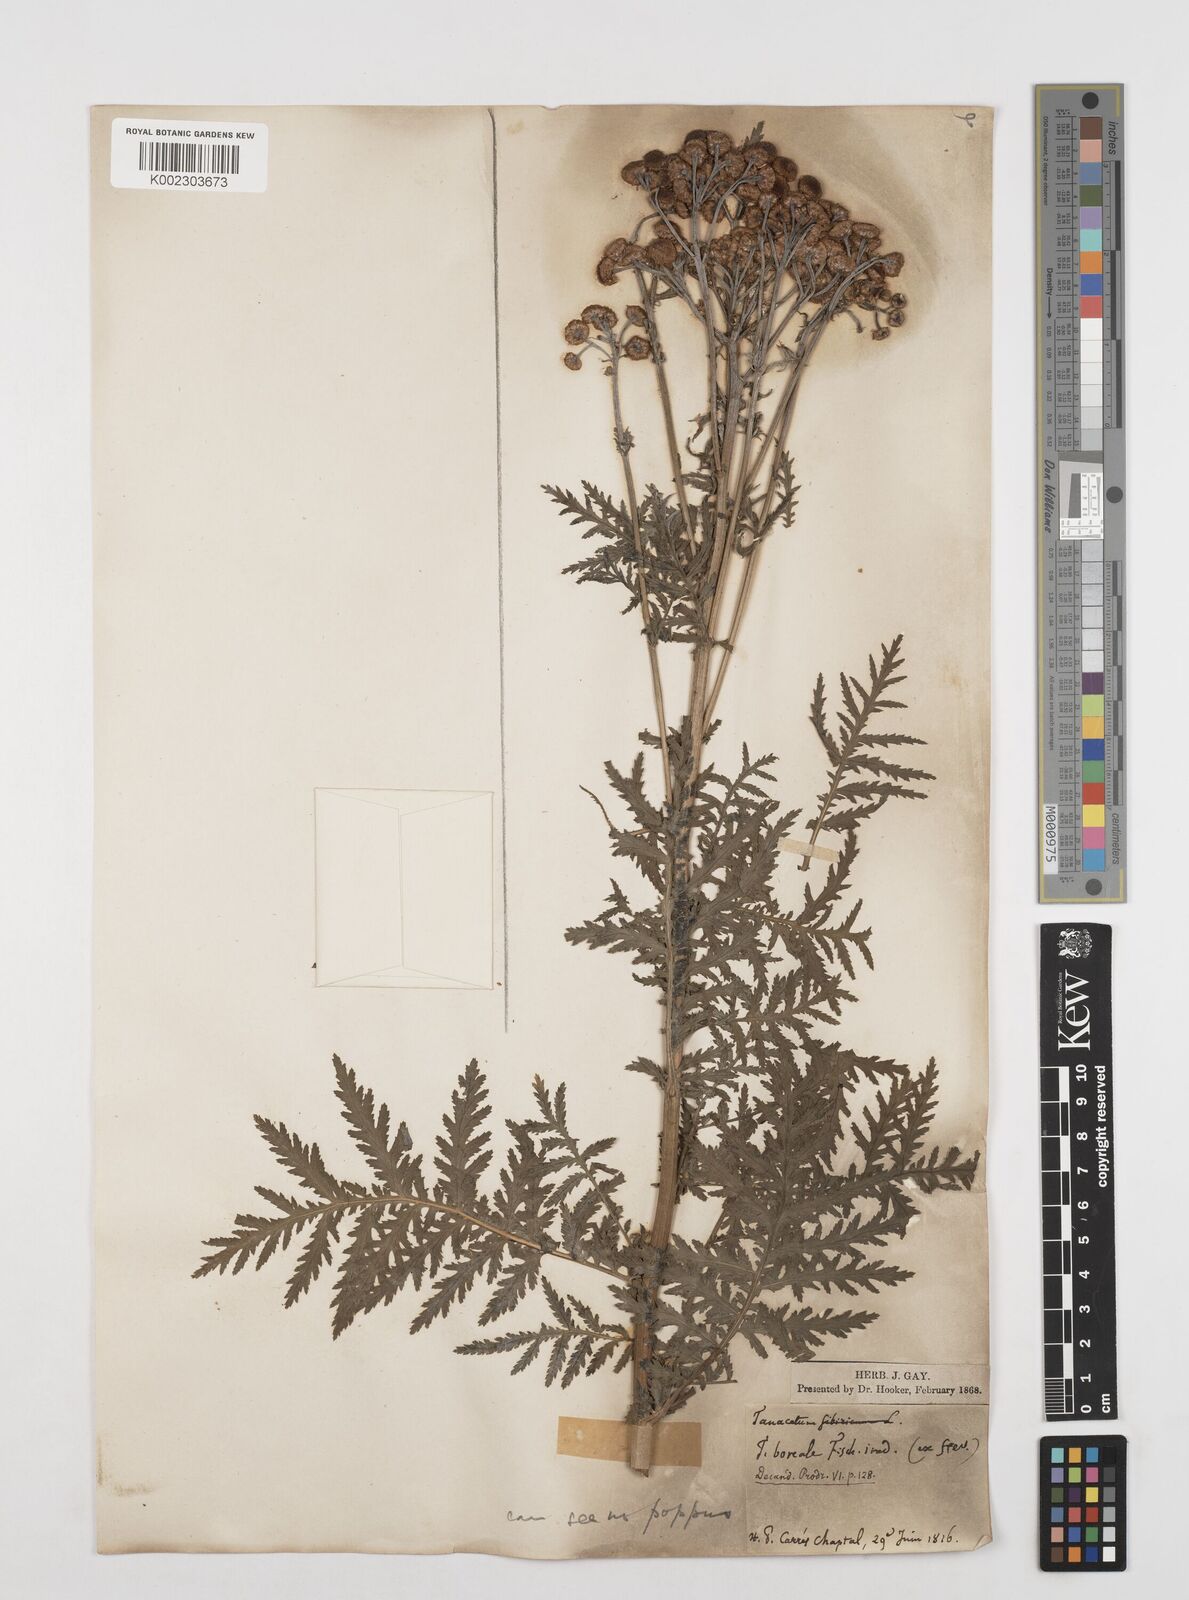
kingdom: Plantae
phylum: Tracheophyta
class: Magnoliopsida
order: Asterales
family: Asteraceae
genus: Tanacetum
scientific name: Tanacetum
